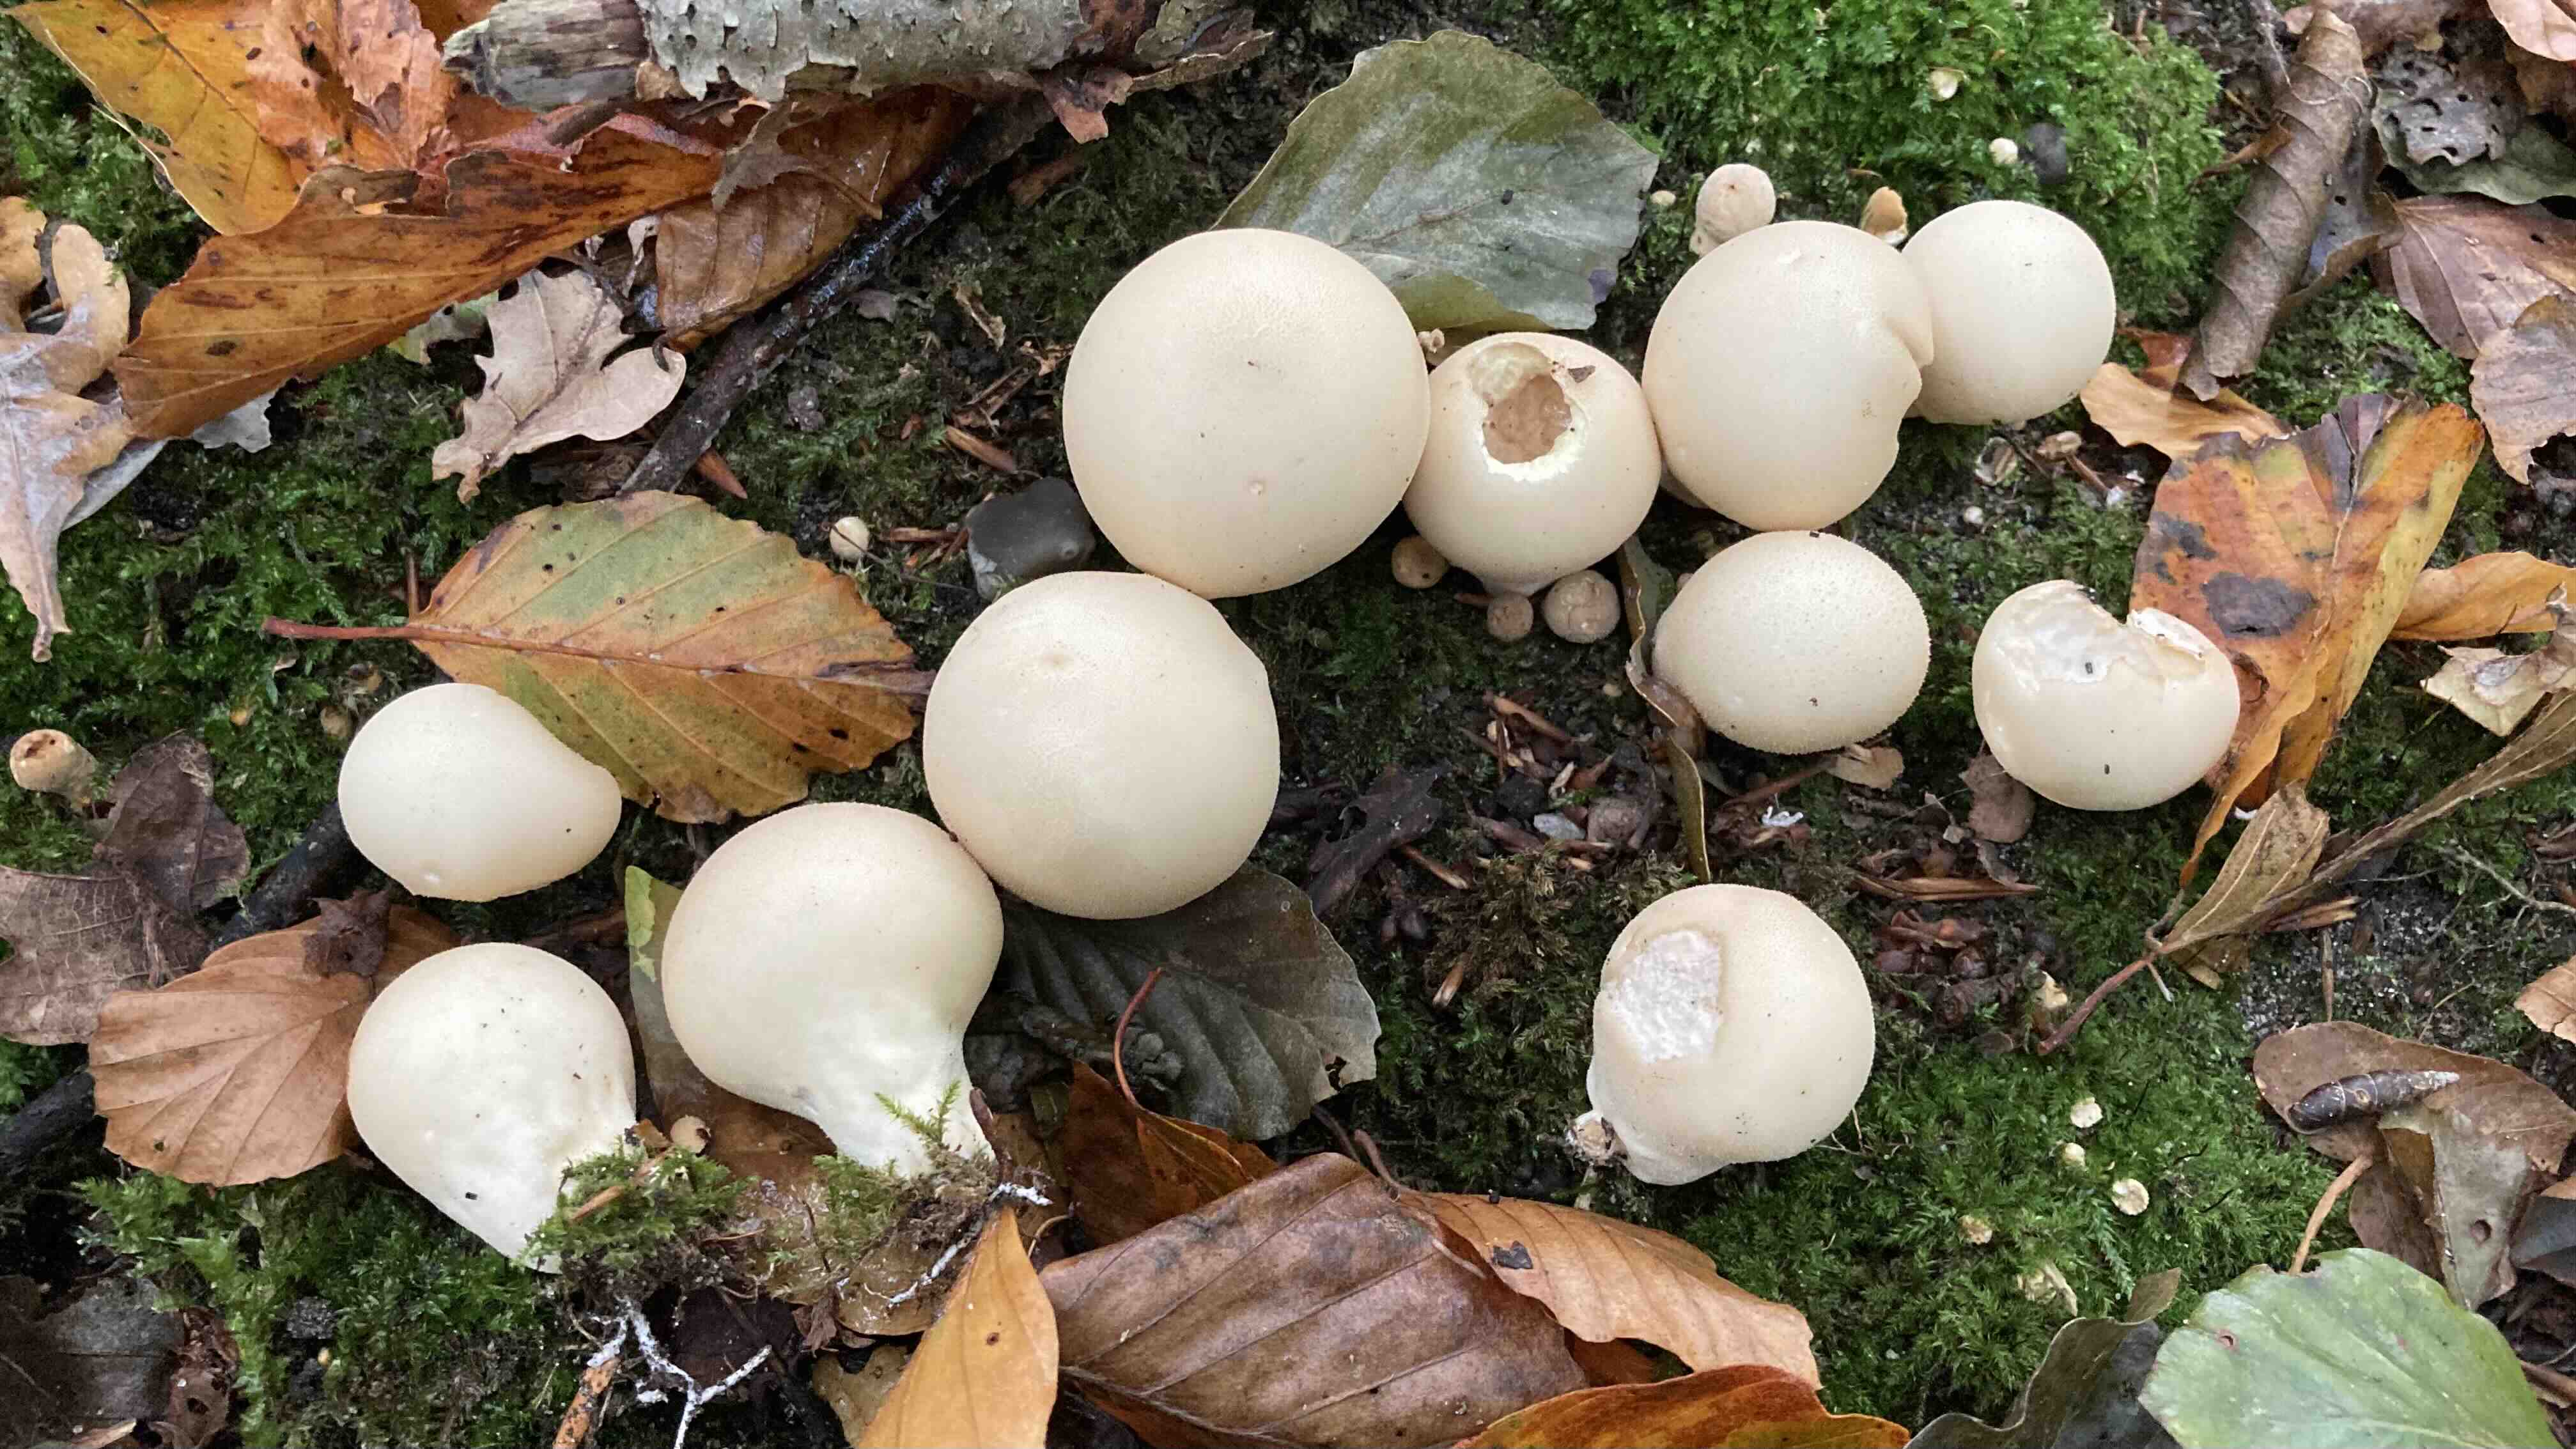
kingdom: Fungi
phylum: Basidiomycota
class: Agaricomycetes
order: Agaricales
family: Lycoperdaceae
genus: Apioperdon
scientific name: Apioperdon pyriforme
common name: pære-støvbold
